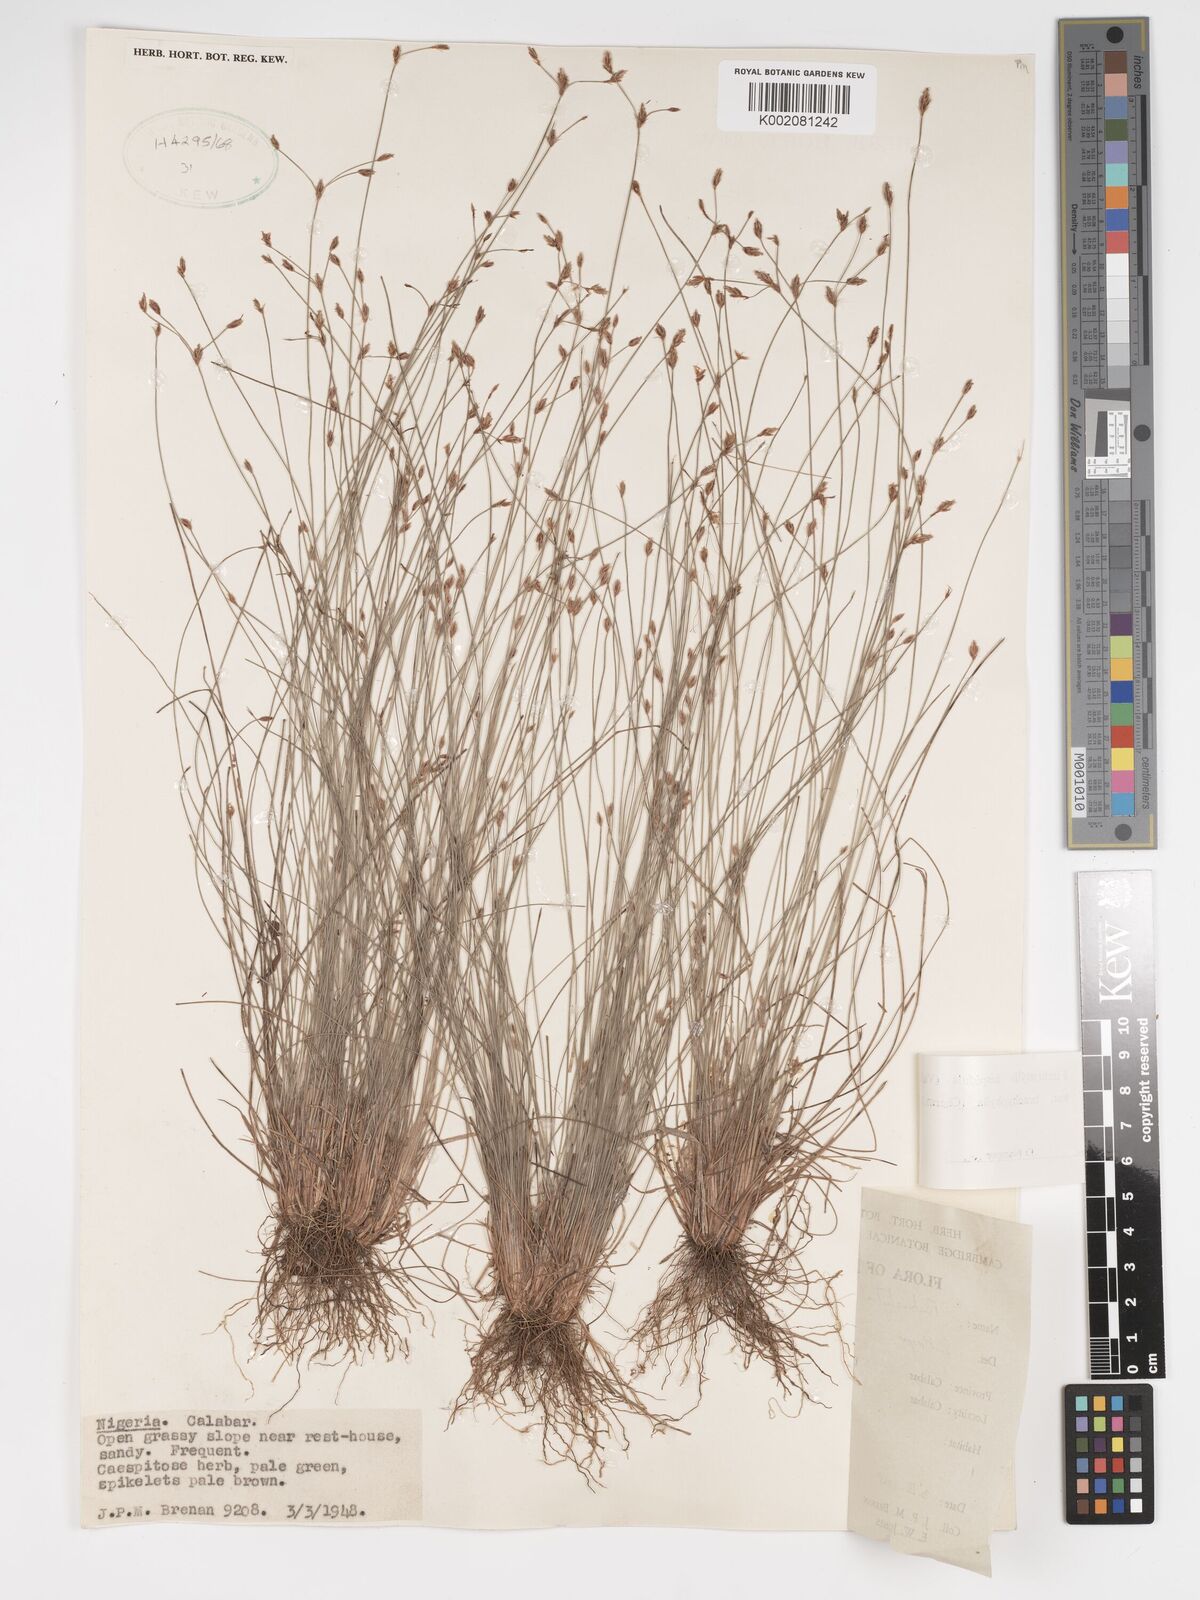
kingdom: Plantae
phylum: Tracheophyta
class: Liliopsida
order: Poales
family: Cyperaceae
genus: Bulbostylis
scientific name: Bulbostylis hispidula
